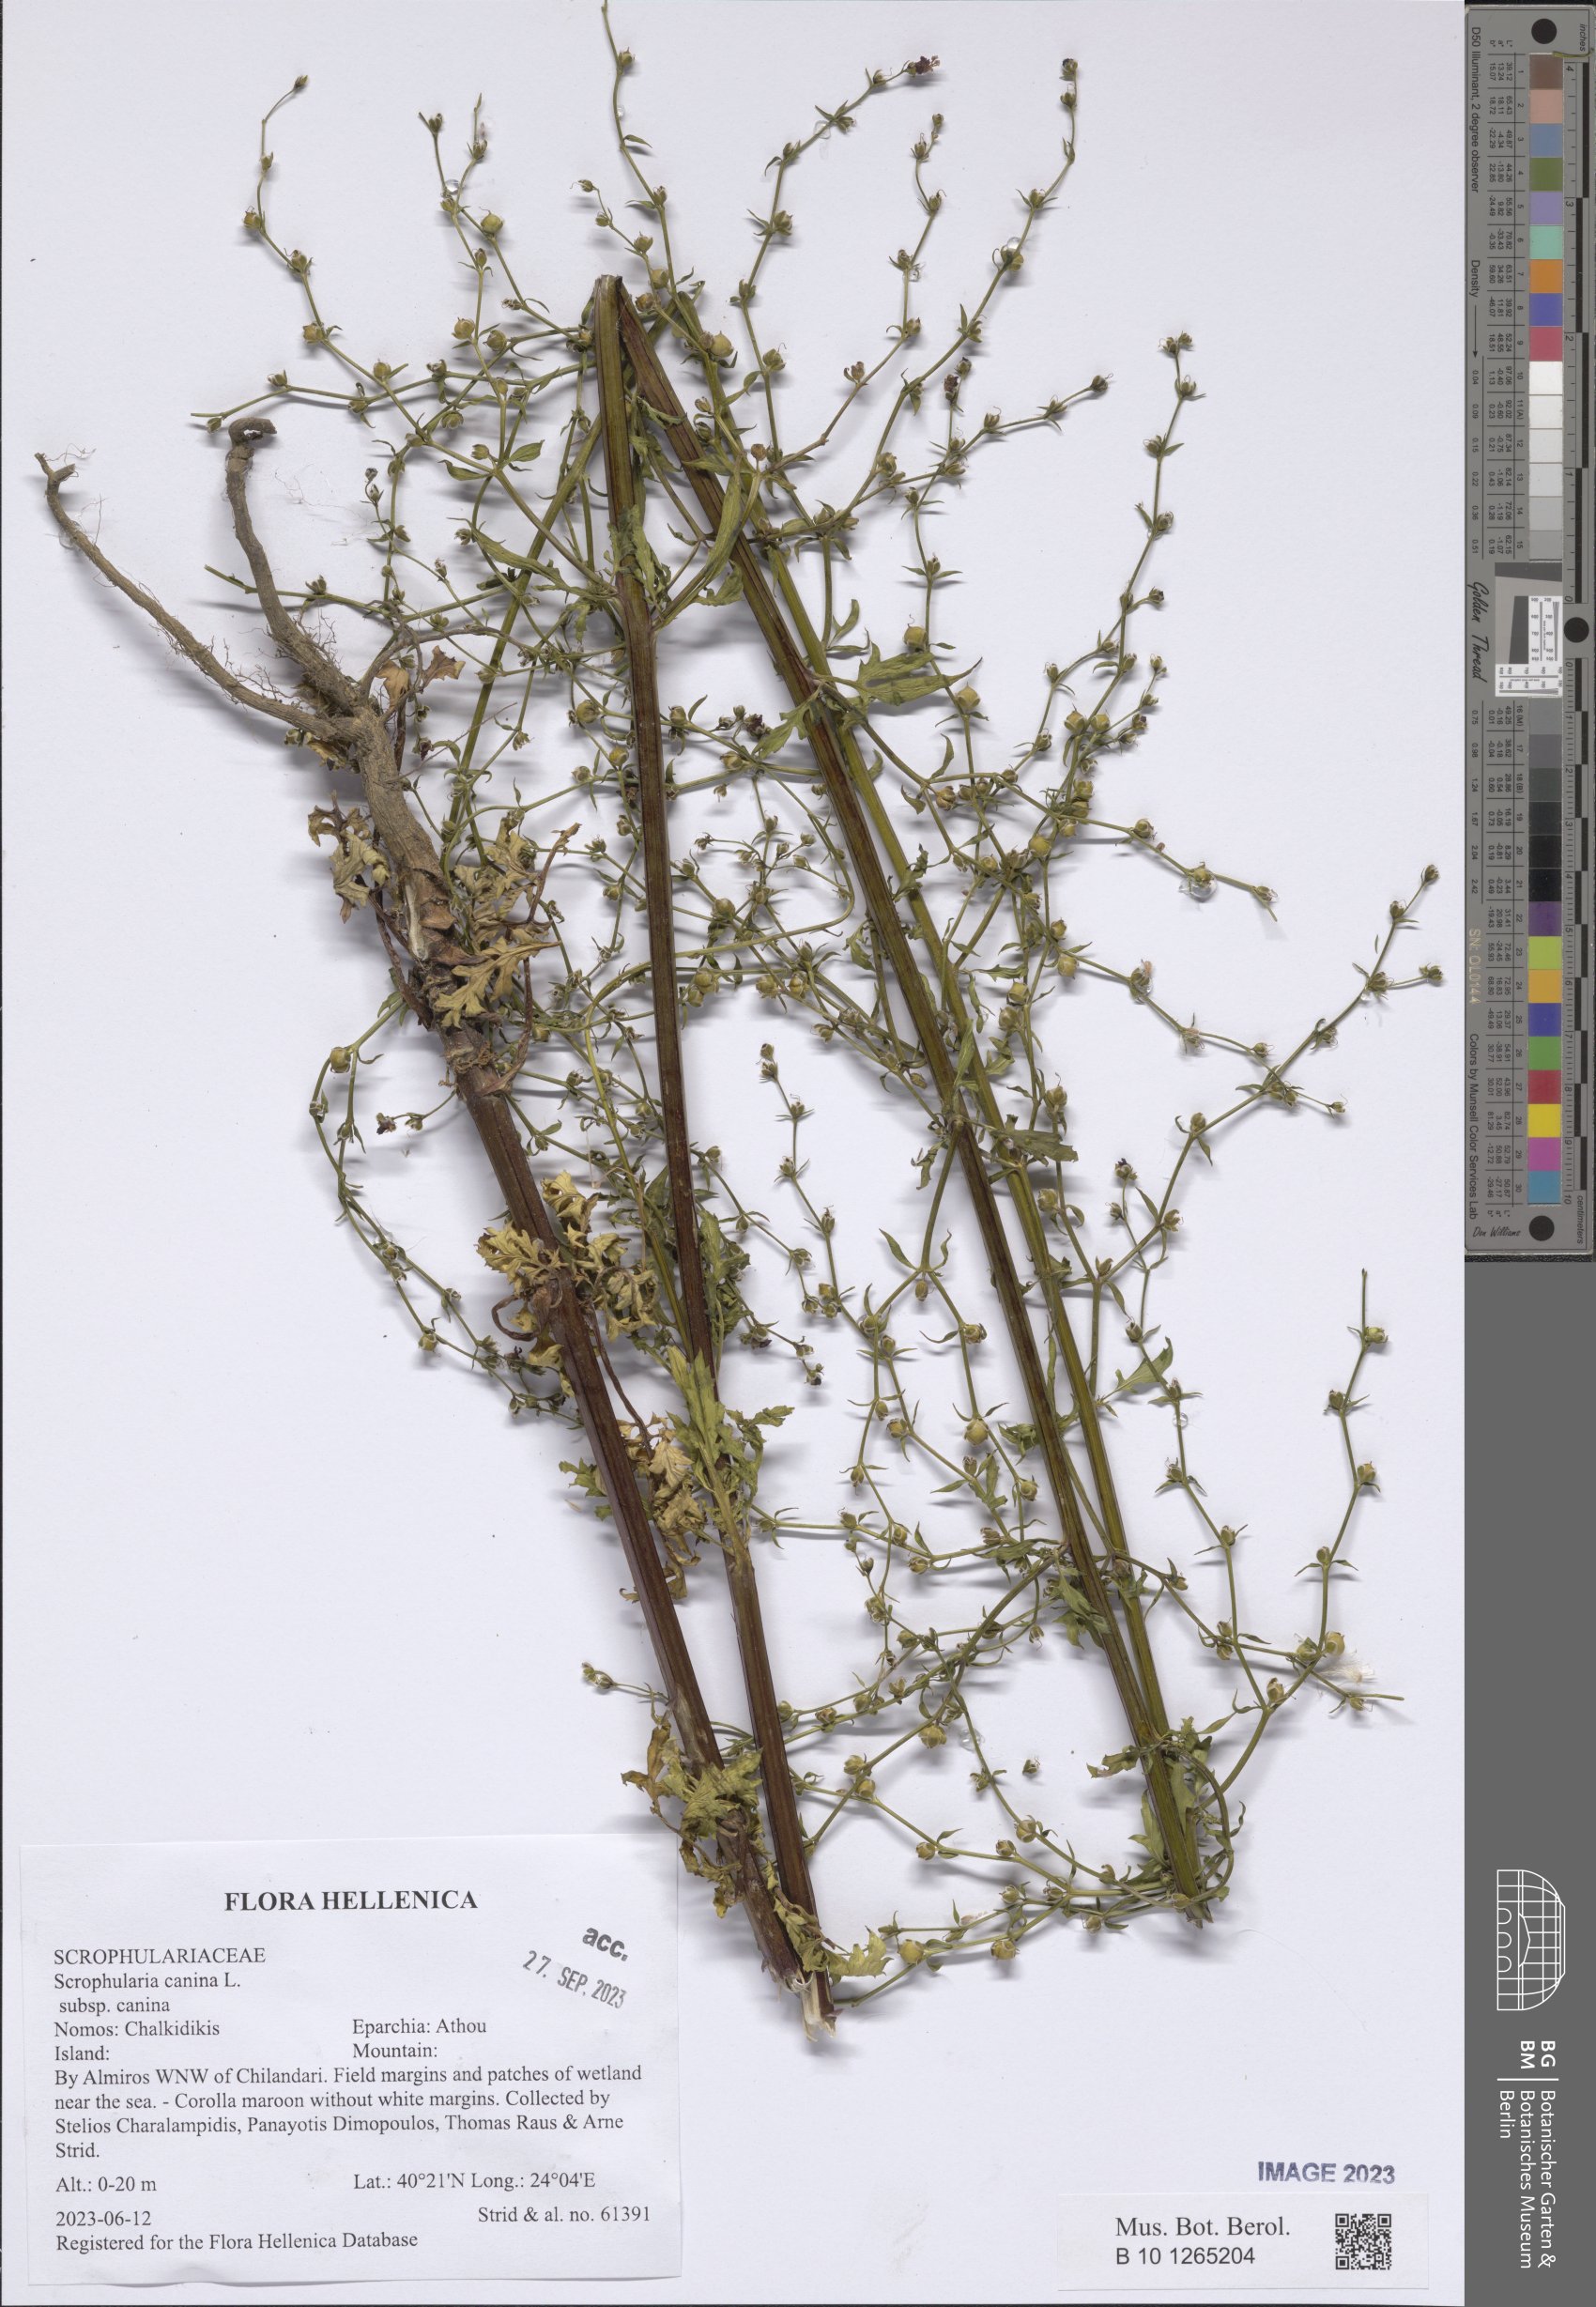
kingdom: Plantae
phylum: Tracheophyta
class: Magnoliopsida
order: Lamiales
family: Scrophulariaceae
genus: Scrophularia
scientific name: Scrophularia canina
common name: French figwort
